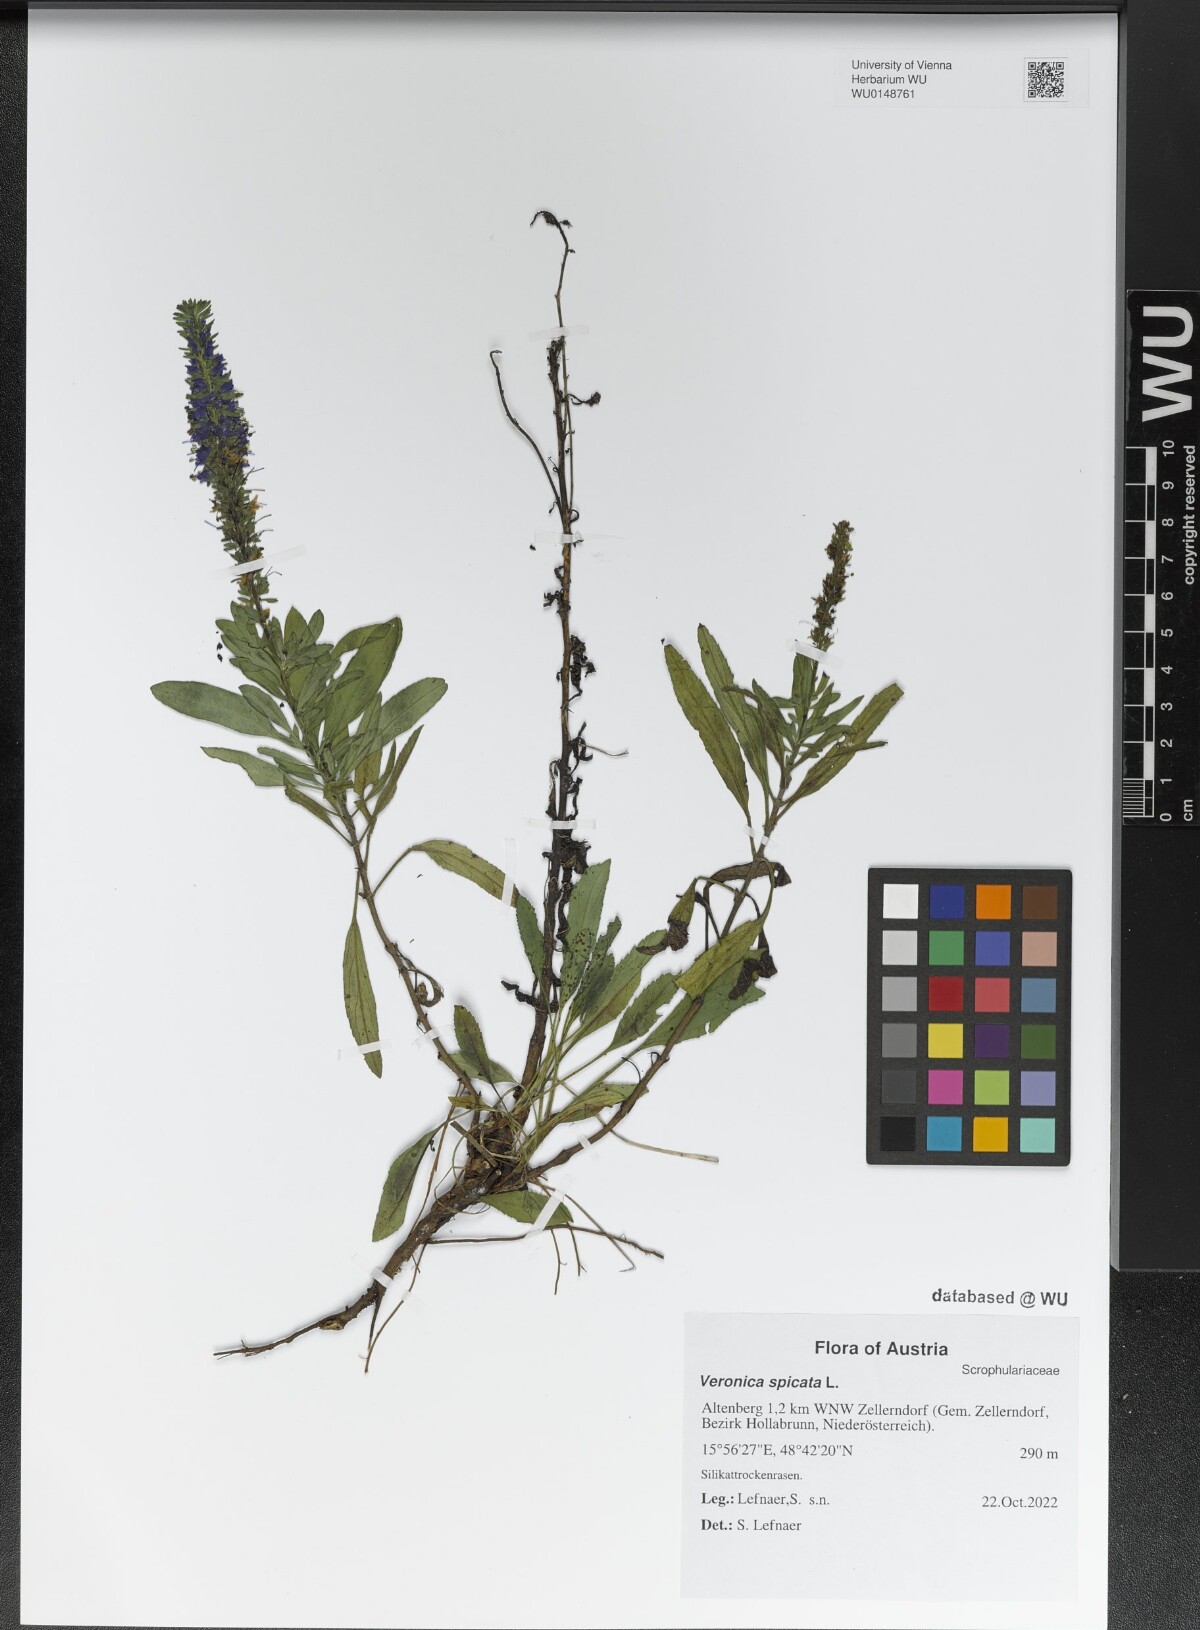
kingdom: Plantae
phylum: Tracheophyta
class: Magnoliopsida
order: Lamiales
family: Plantaginaceae
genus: Veronica
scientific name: Veronica spicata
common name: Spiked speedwell
